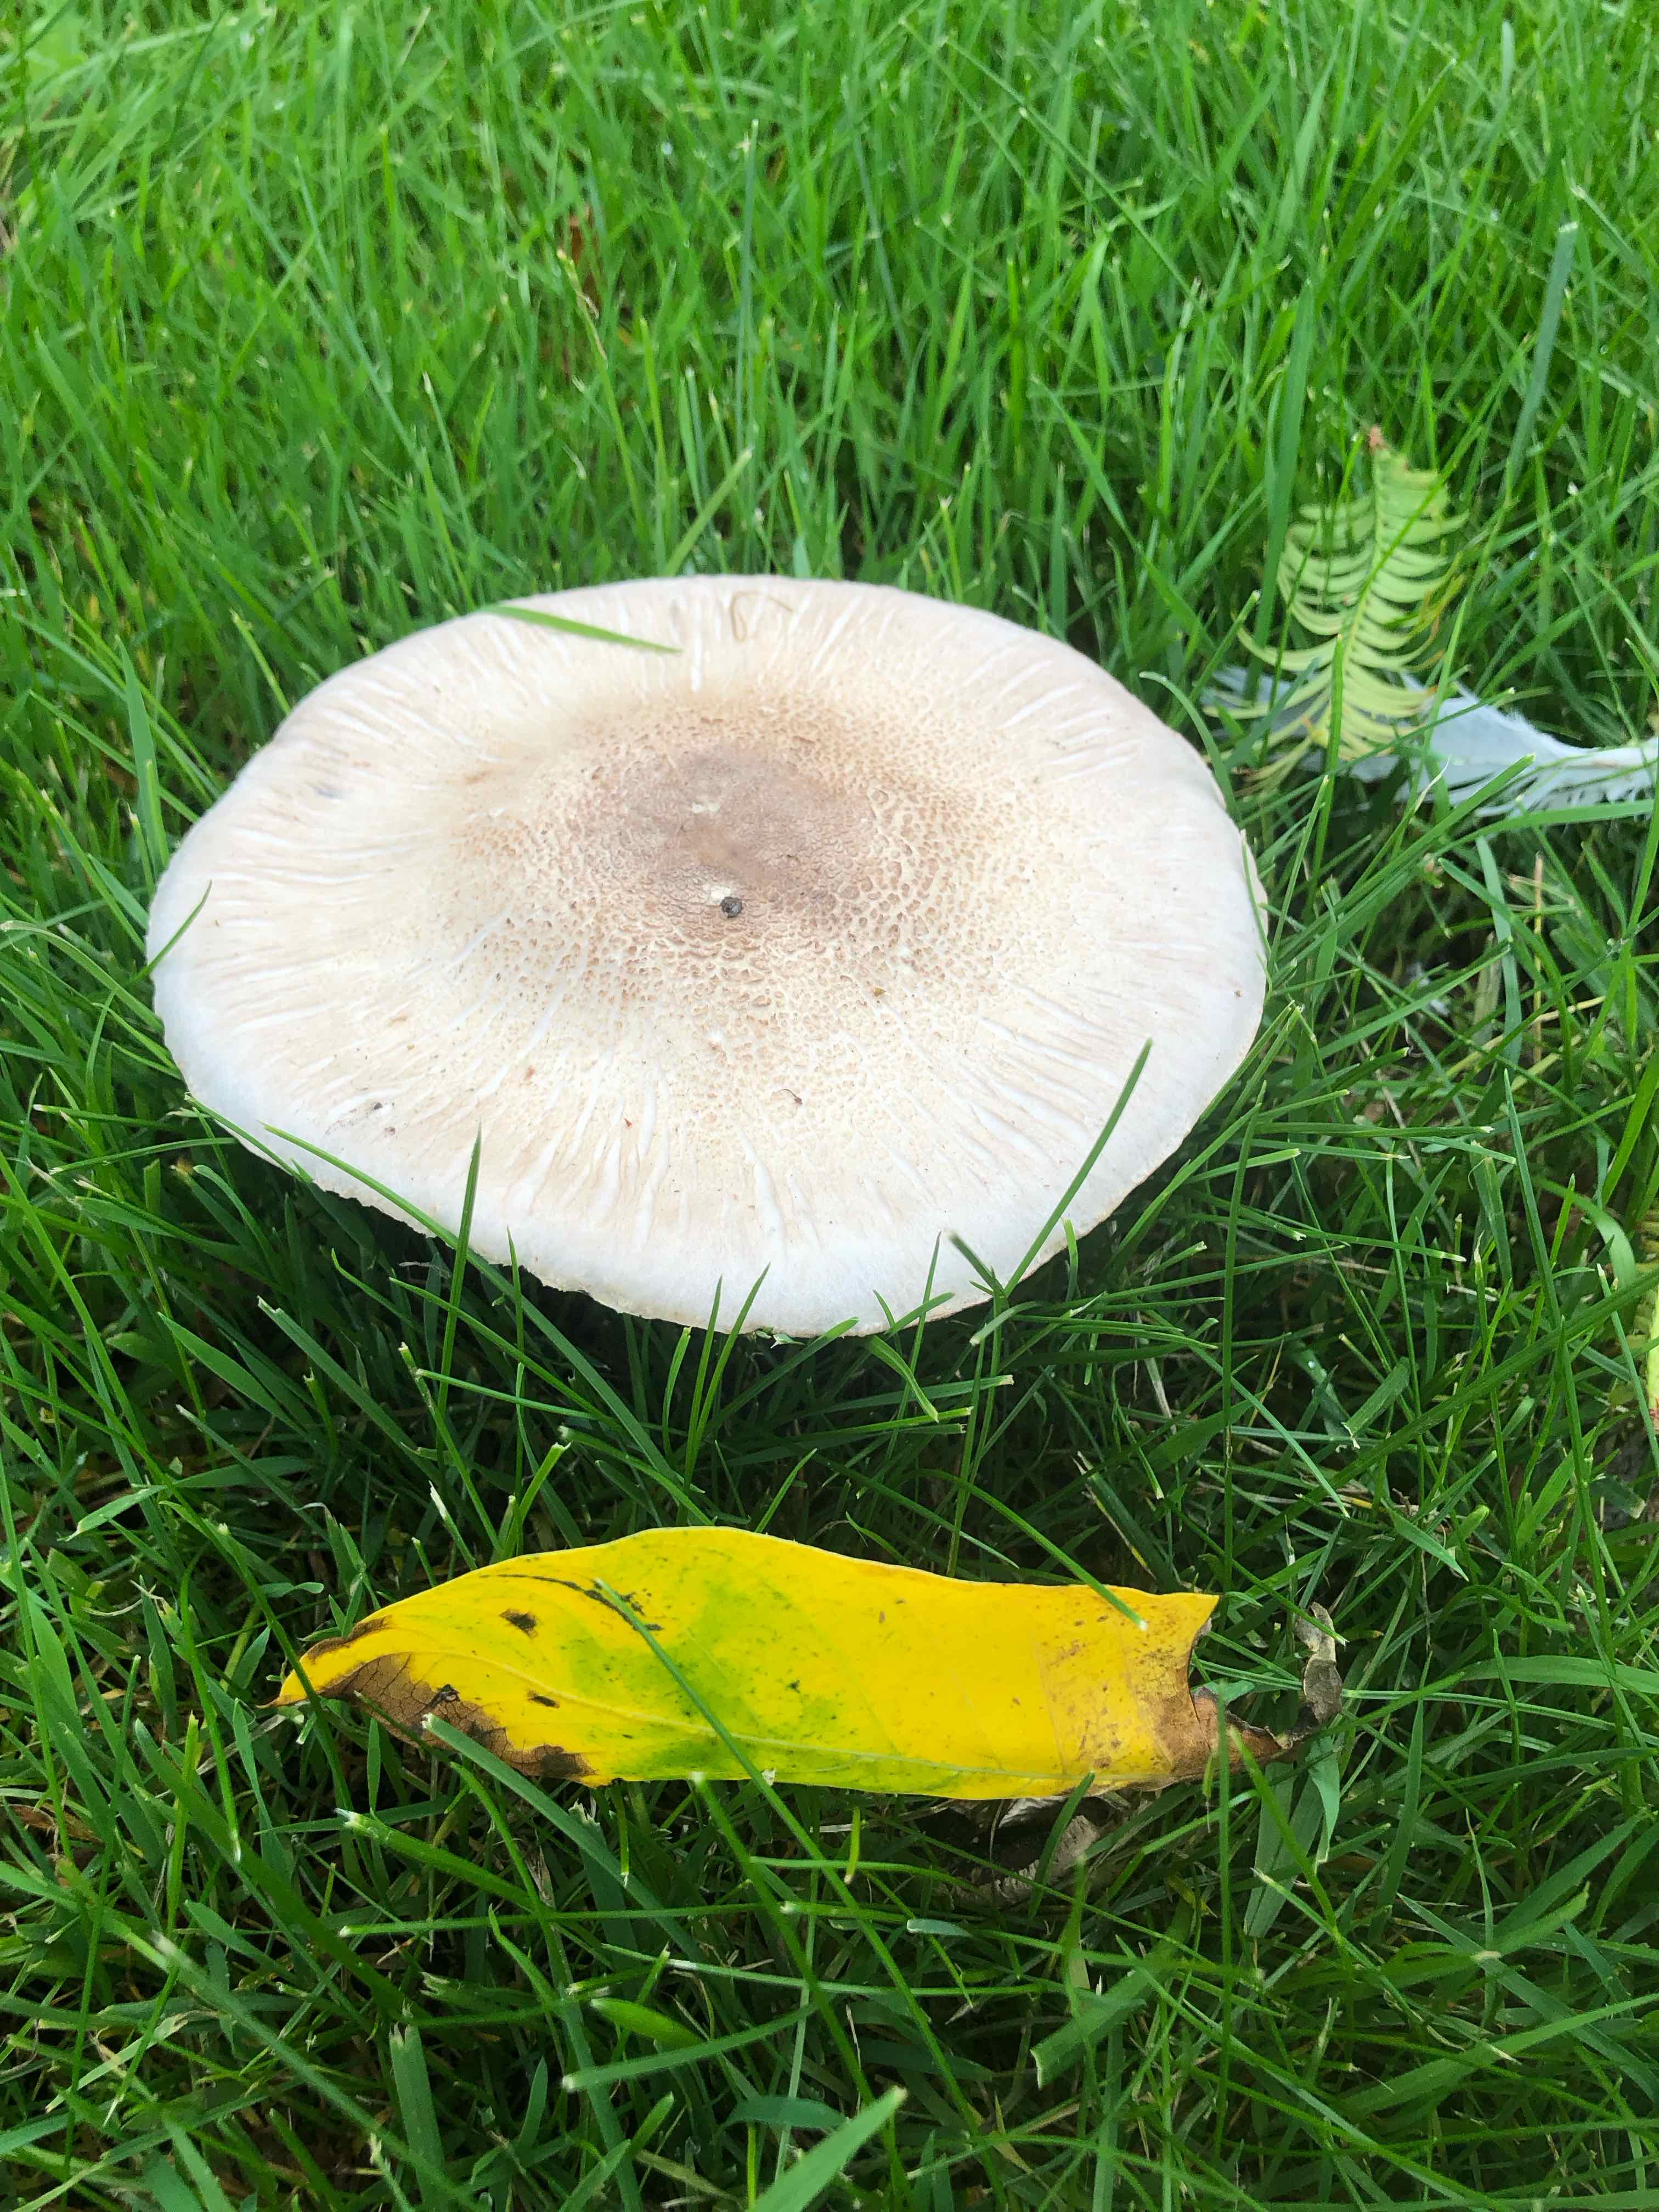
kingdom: Fungi
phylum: Basidiomycota
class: Agaricomycetes
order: Agaricales
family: Agaricaceae
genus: Agaricus
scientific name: Agaricus
